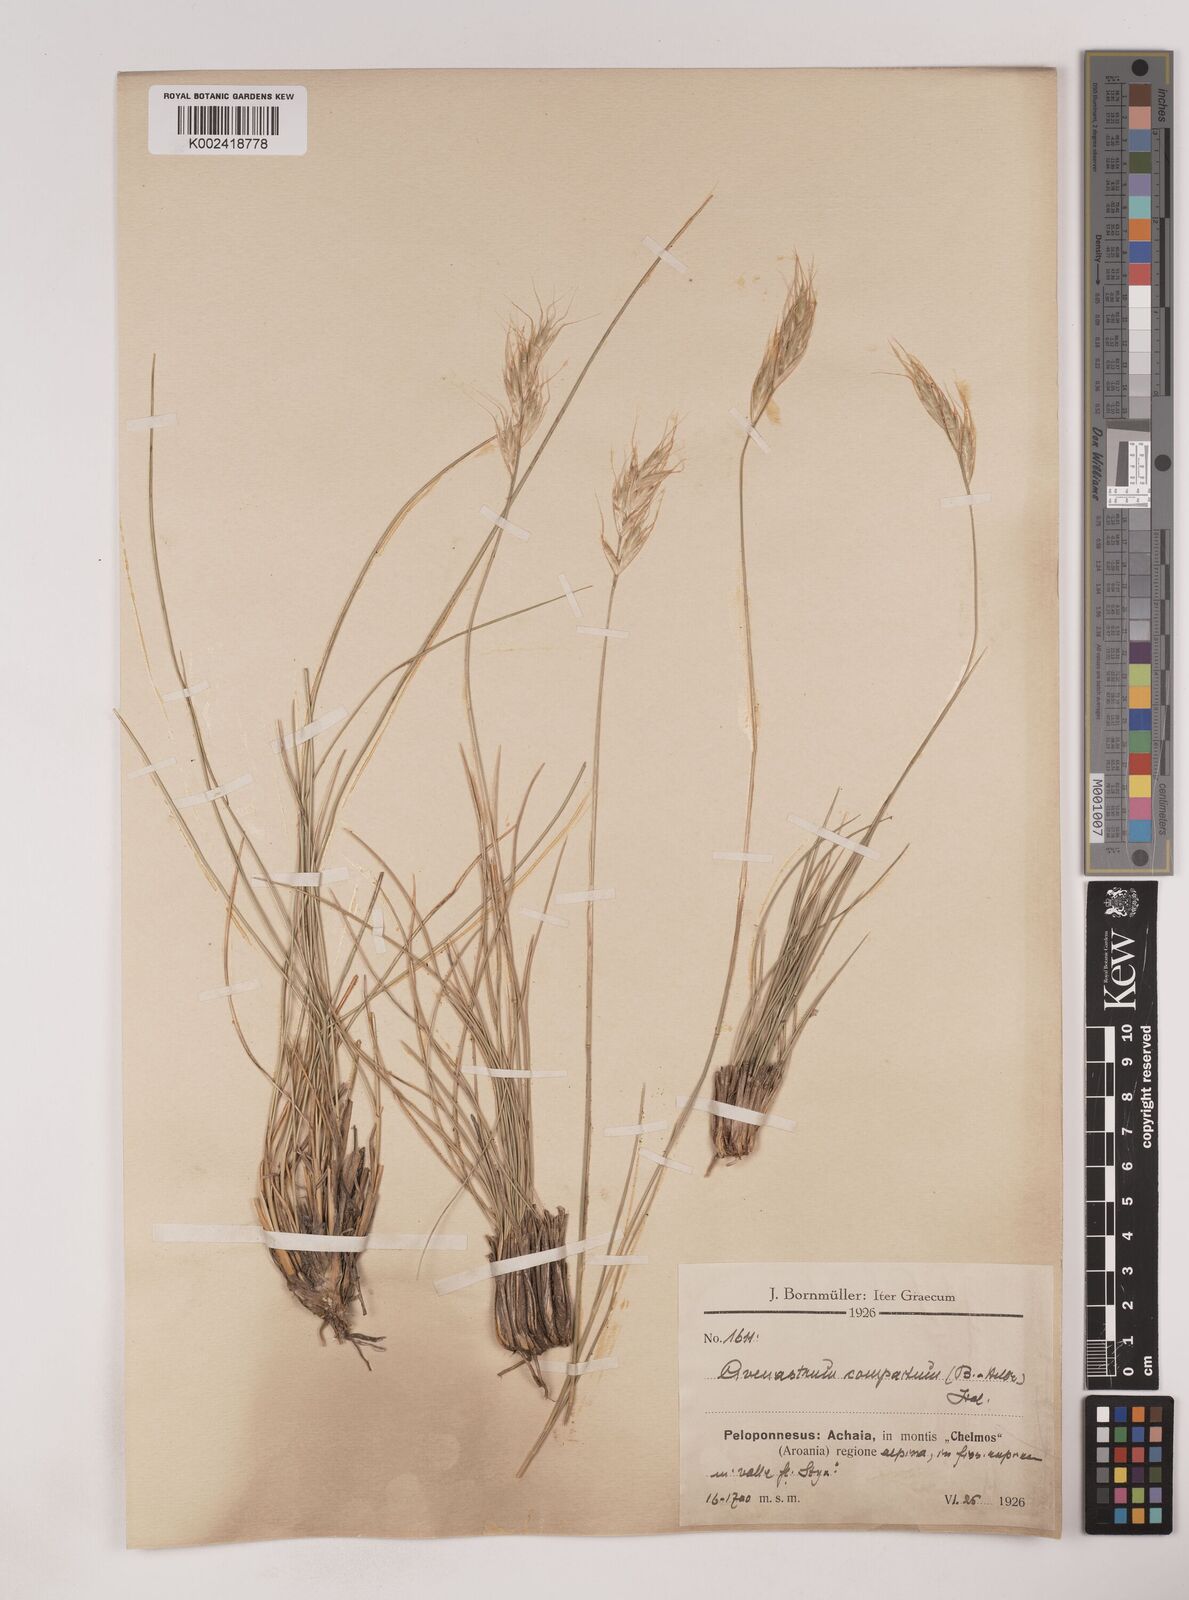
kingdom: Plantae
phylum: Tracheophyta
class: Liliopsida
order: Poales
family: Poaceae
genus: Danthoniastrum
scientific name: Danthoniastrum compactum
